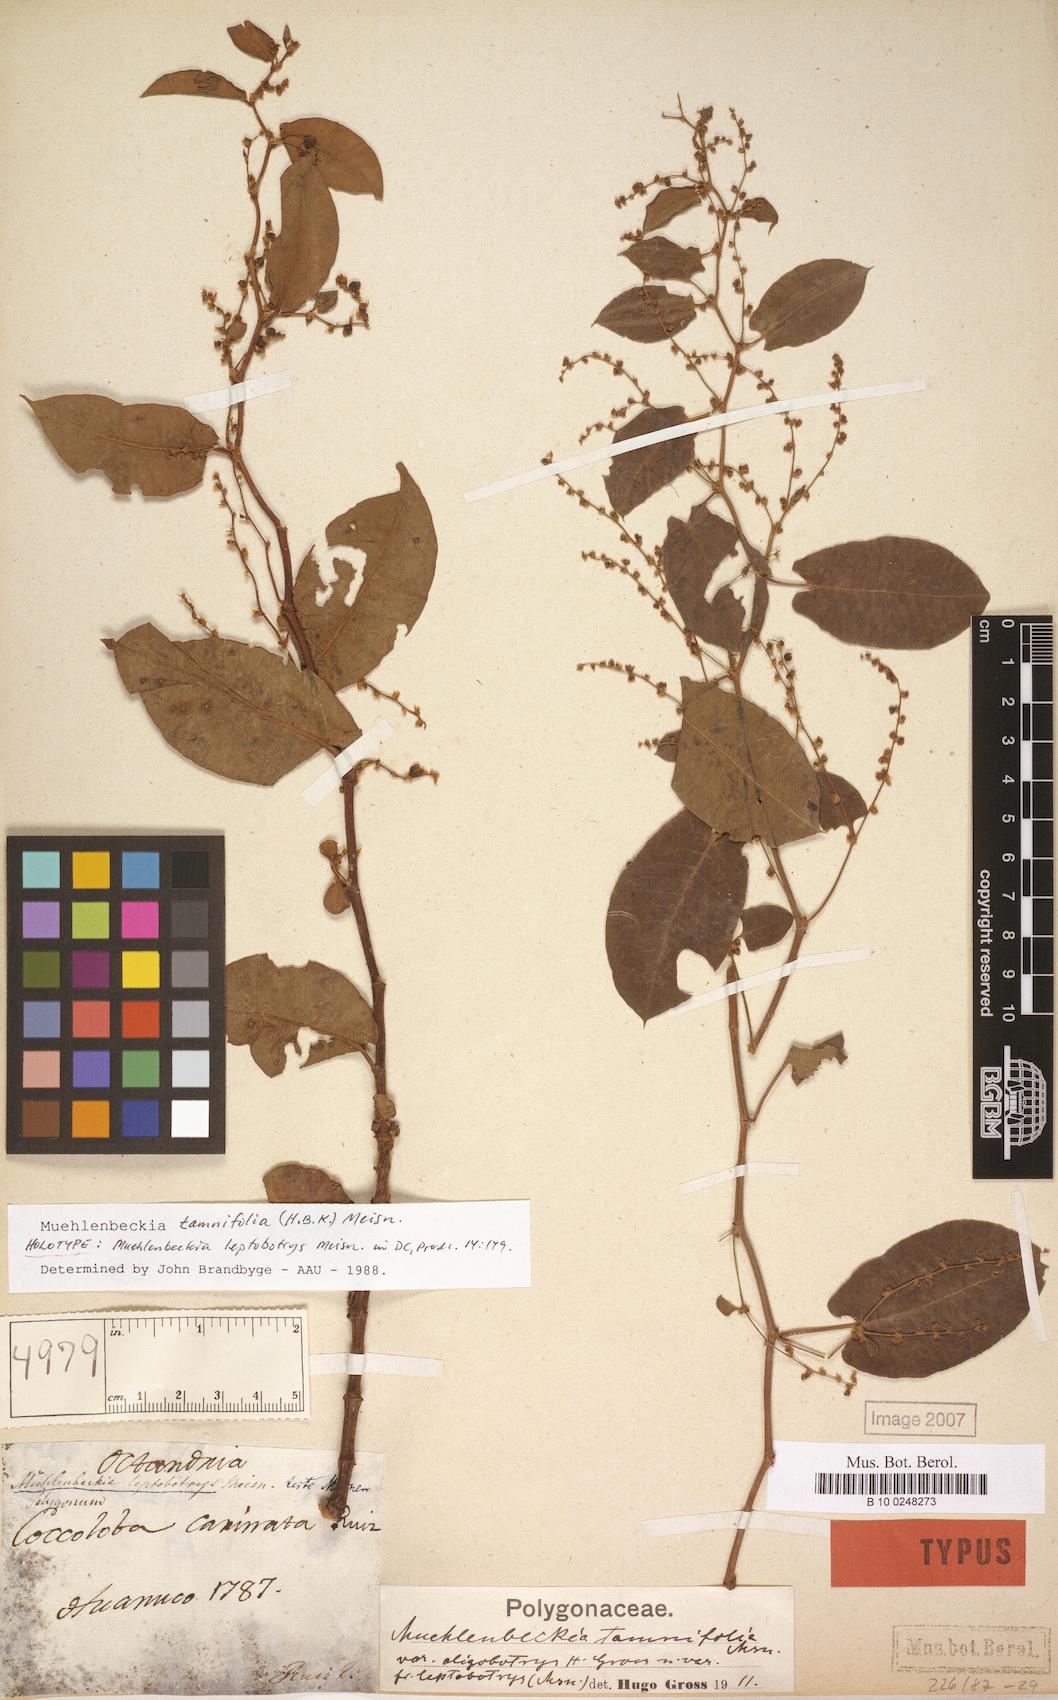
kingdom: Plantae
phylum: Tracheophyta
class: Magnoliopsida
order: Caryophyllales
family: Polygonaceae
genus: Muehlenbeckia
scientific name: Muehlenbeckia tamnifolia
